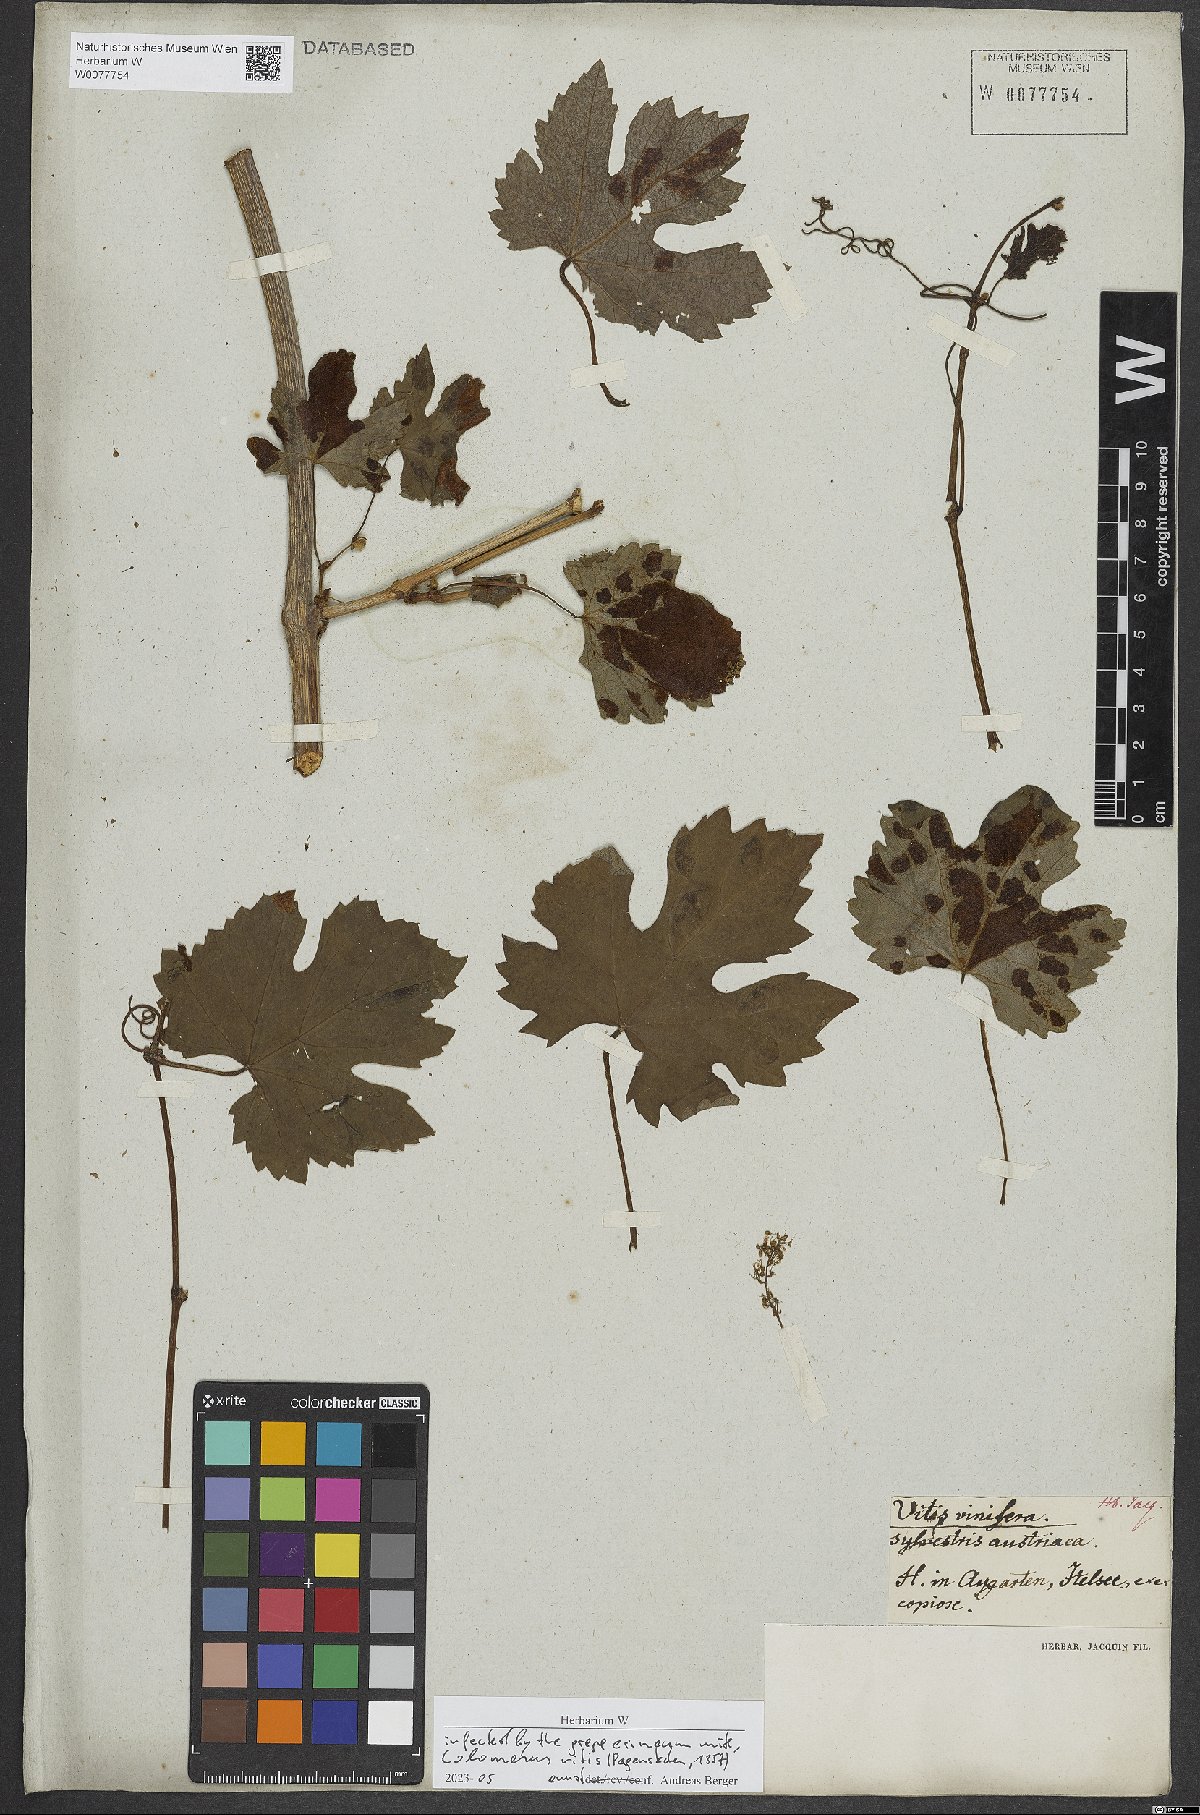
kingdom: Plantae
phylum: Tracheophyta
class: Magnoliopsida
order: Vitales
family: Vitaceae
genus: Vitis
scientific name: Vitis gmelinii
